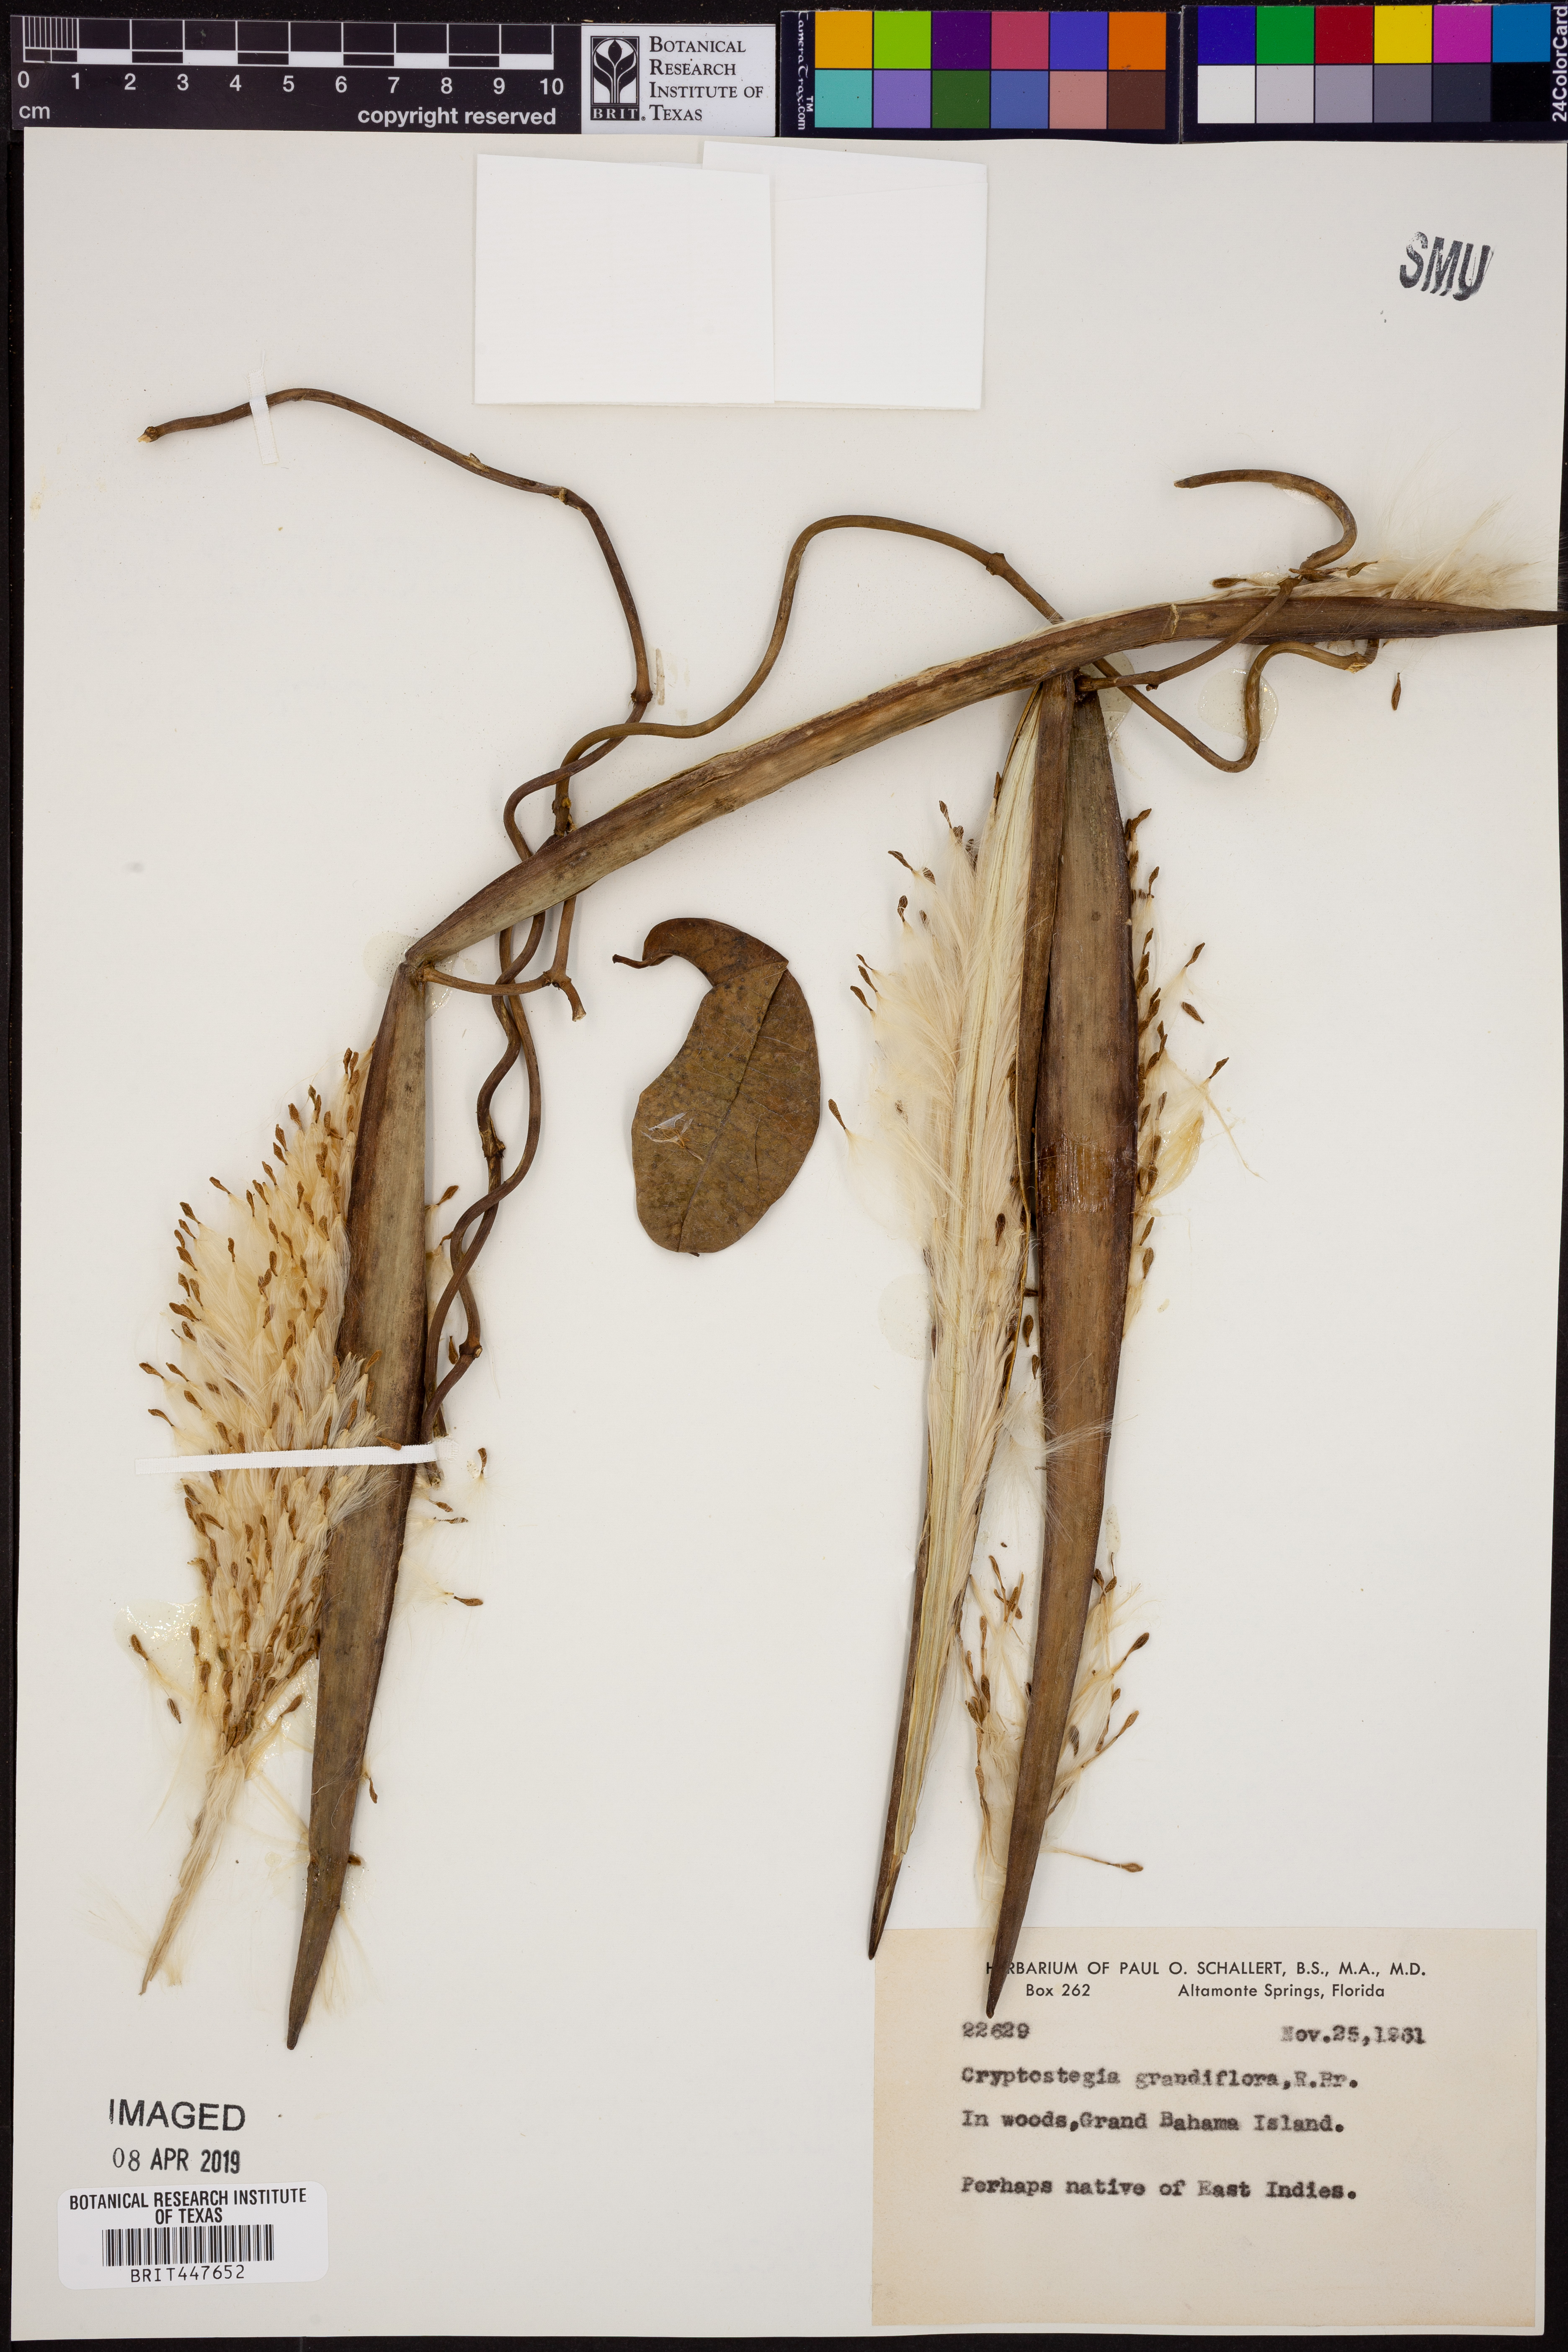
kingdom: Plantae
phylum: Tracheophyta
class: Magnoliopsida
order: Gentianales
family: Apocynaceae
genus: Cryptostegia
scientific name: Cryptostegia grandiflora
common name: Palay rubbervine
